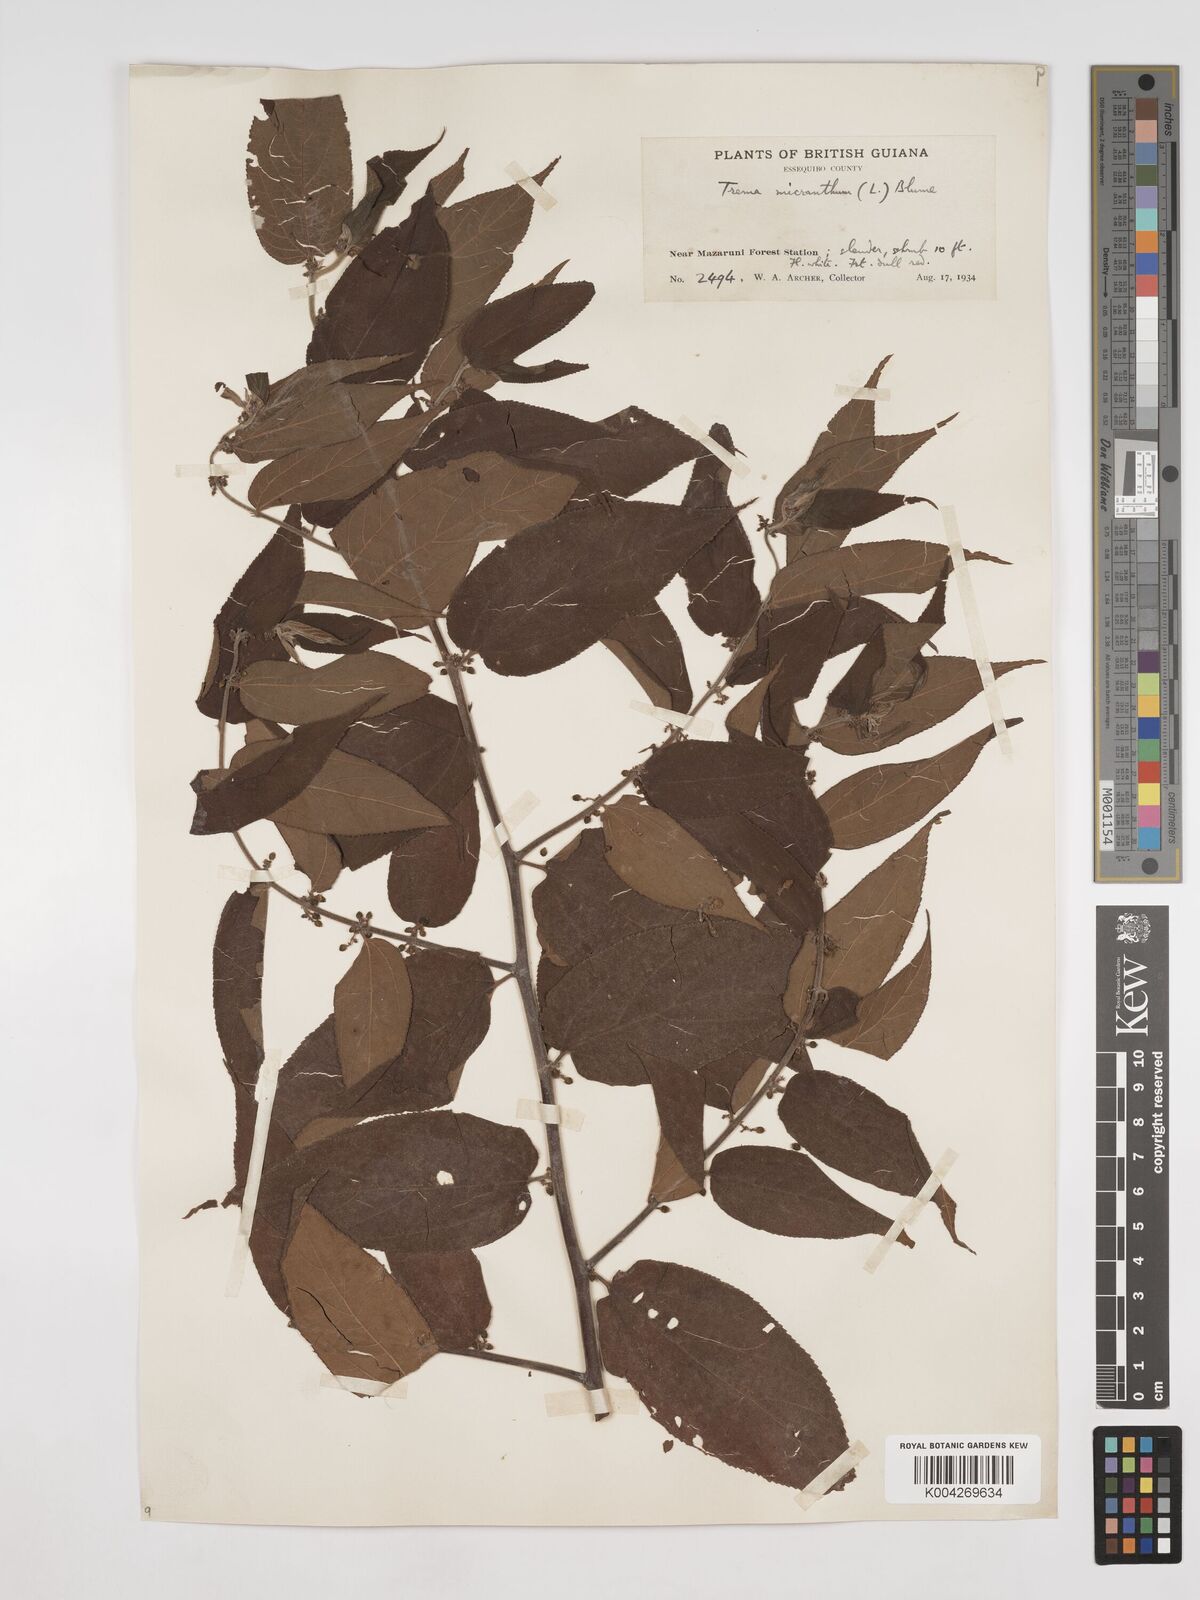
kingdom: Plantae
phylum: Tracheophyta
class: Magnoliopsida
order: Rosales
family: Cannabaceae
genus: Trema
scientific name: Trema micranthum
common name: Jamaican nettletree
